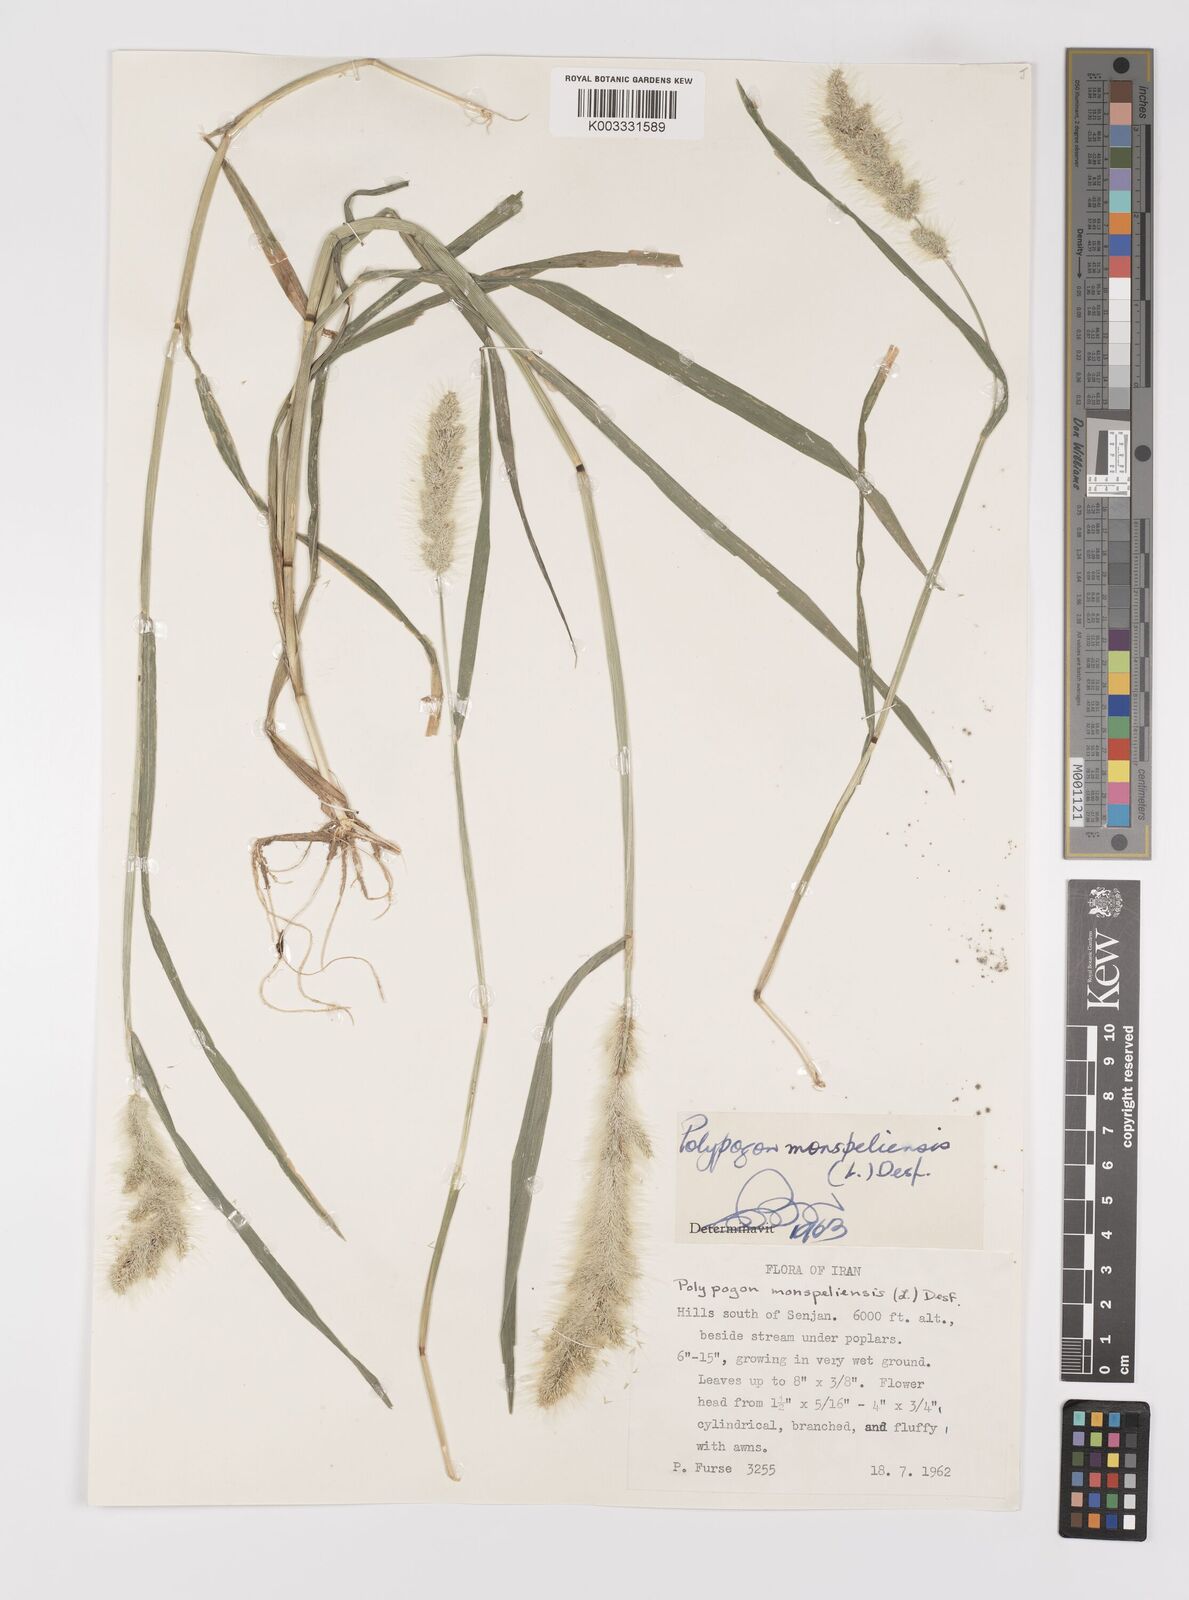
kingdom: Plantae
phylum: Tracheophyta
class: Liliopsida
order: Poales
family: Poaceae
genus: Polypogon
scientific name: Polypogon monspeliensis
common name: Annual rabbitsfoot grass
